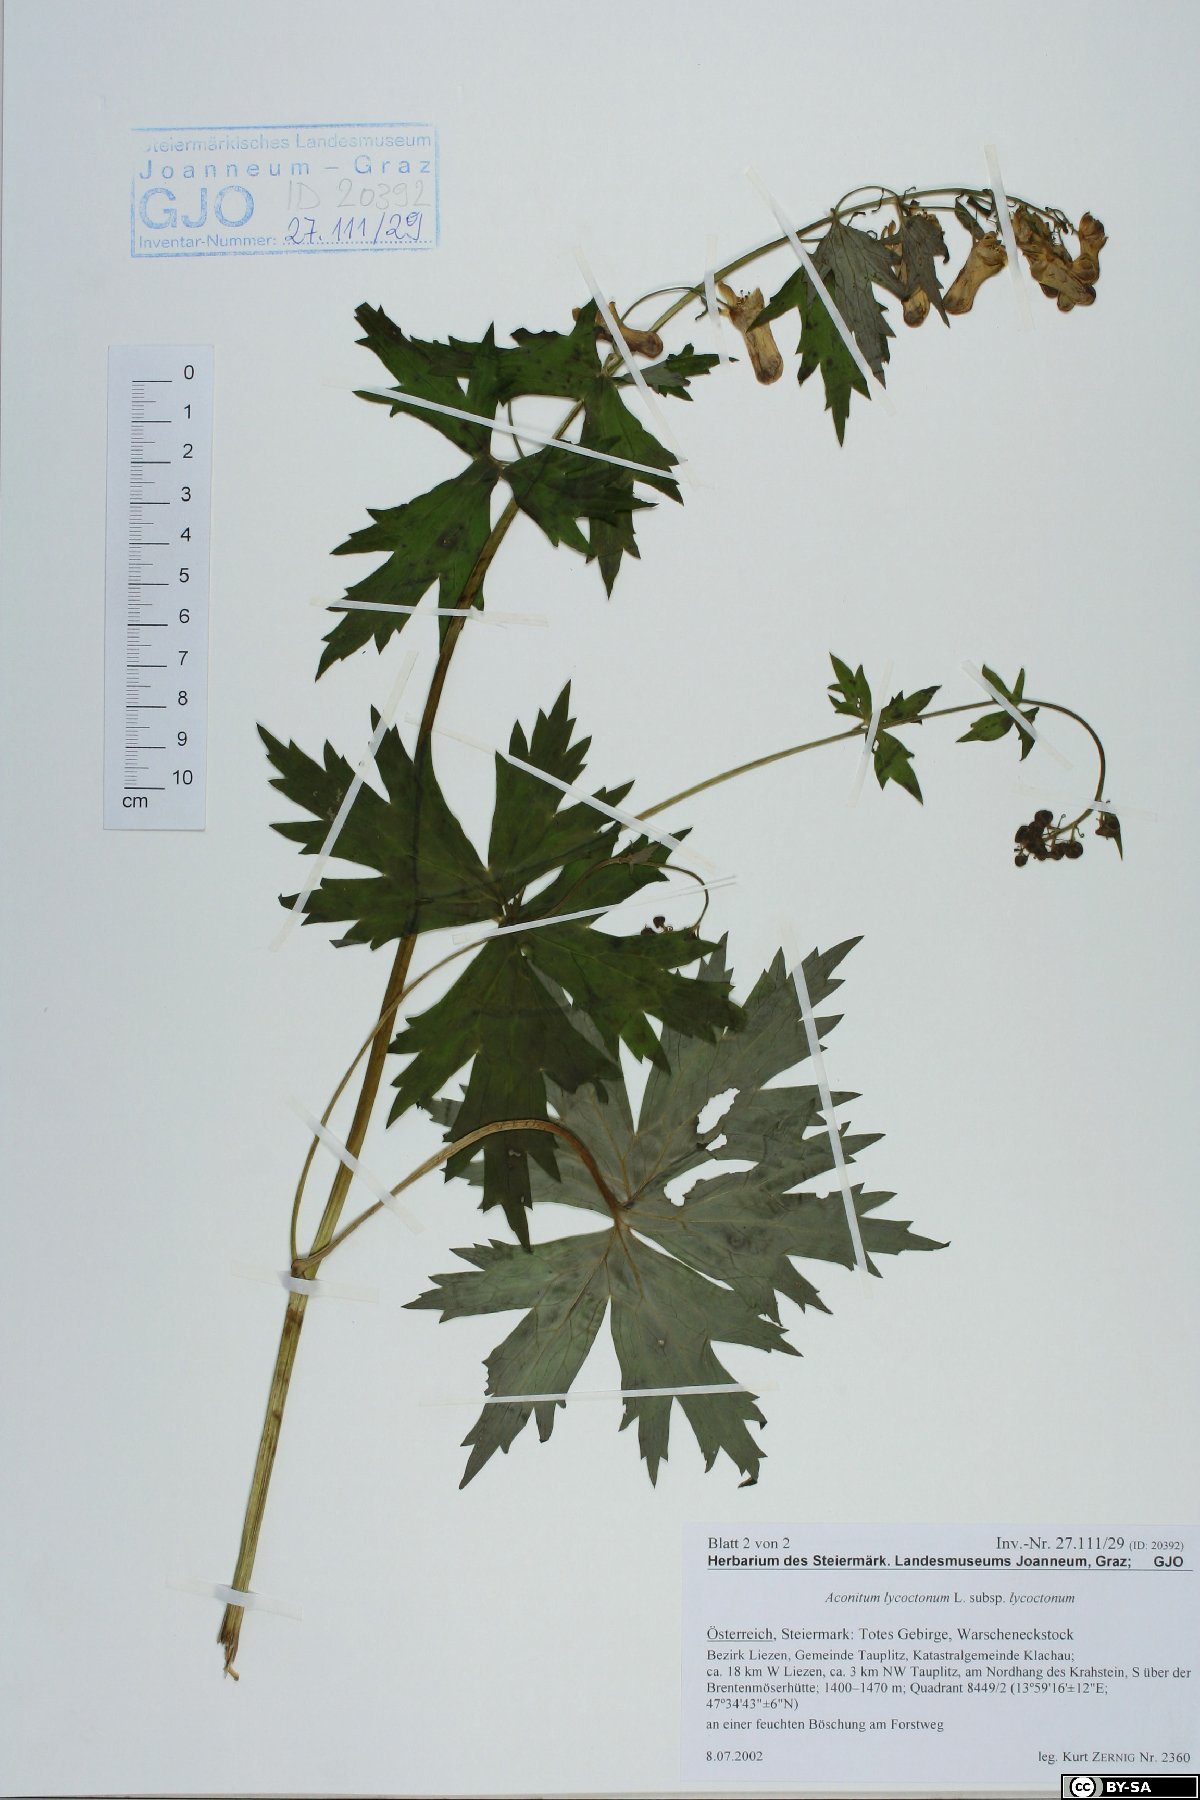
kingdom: Plantae
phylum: Tracheophyta
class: Magnoliopsida
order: Ranunculales
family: Ranunculaceae
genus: Aconitum
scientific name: Aconitum lycoctonum
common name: Wolf's-bane
